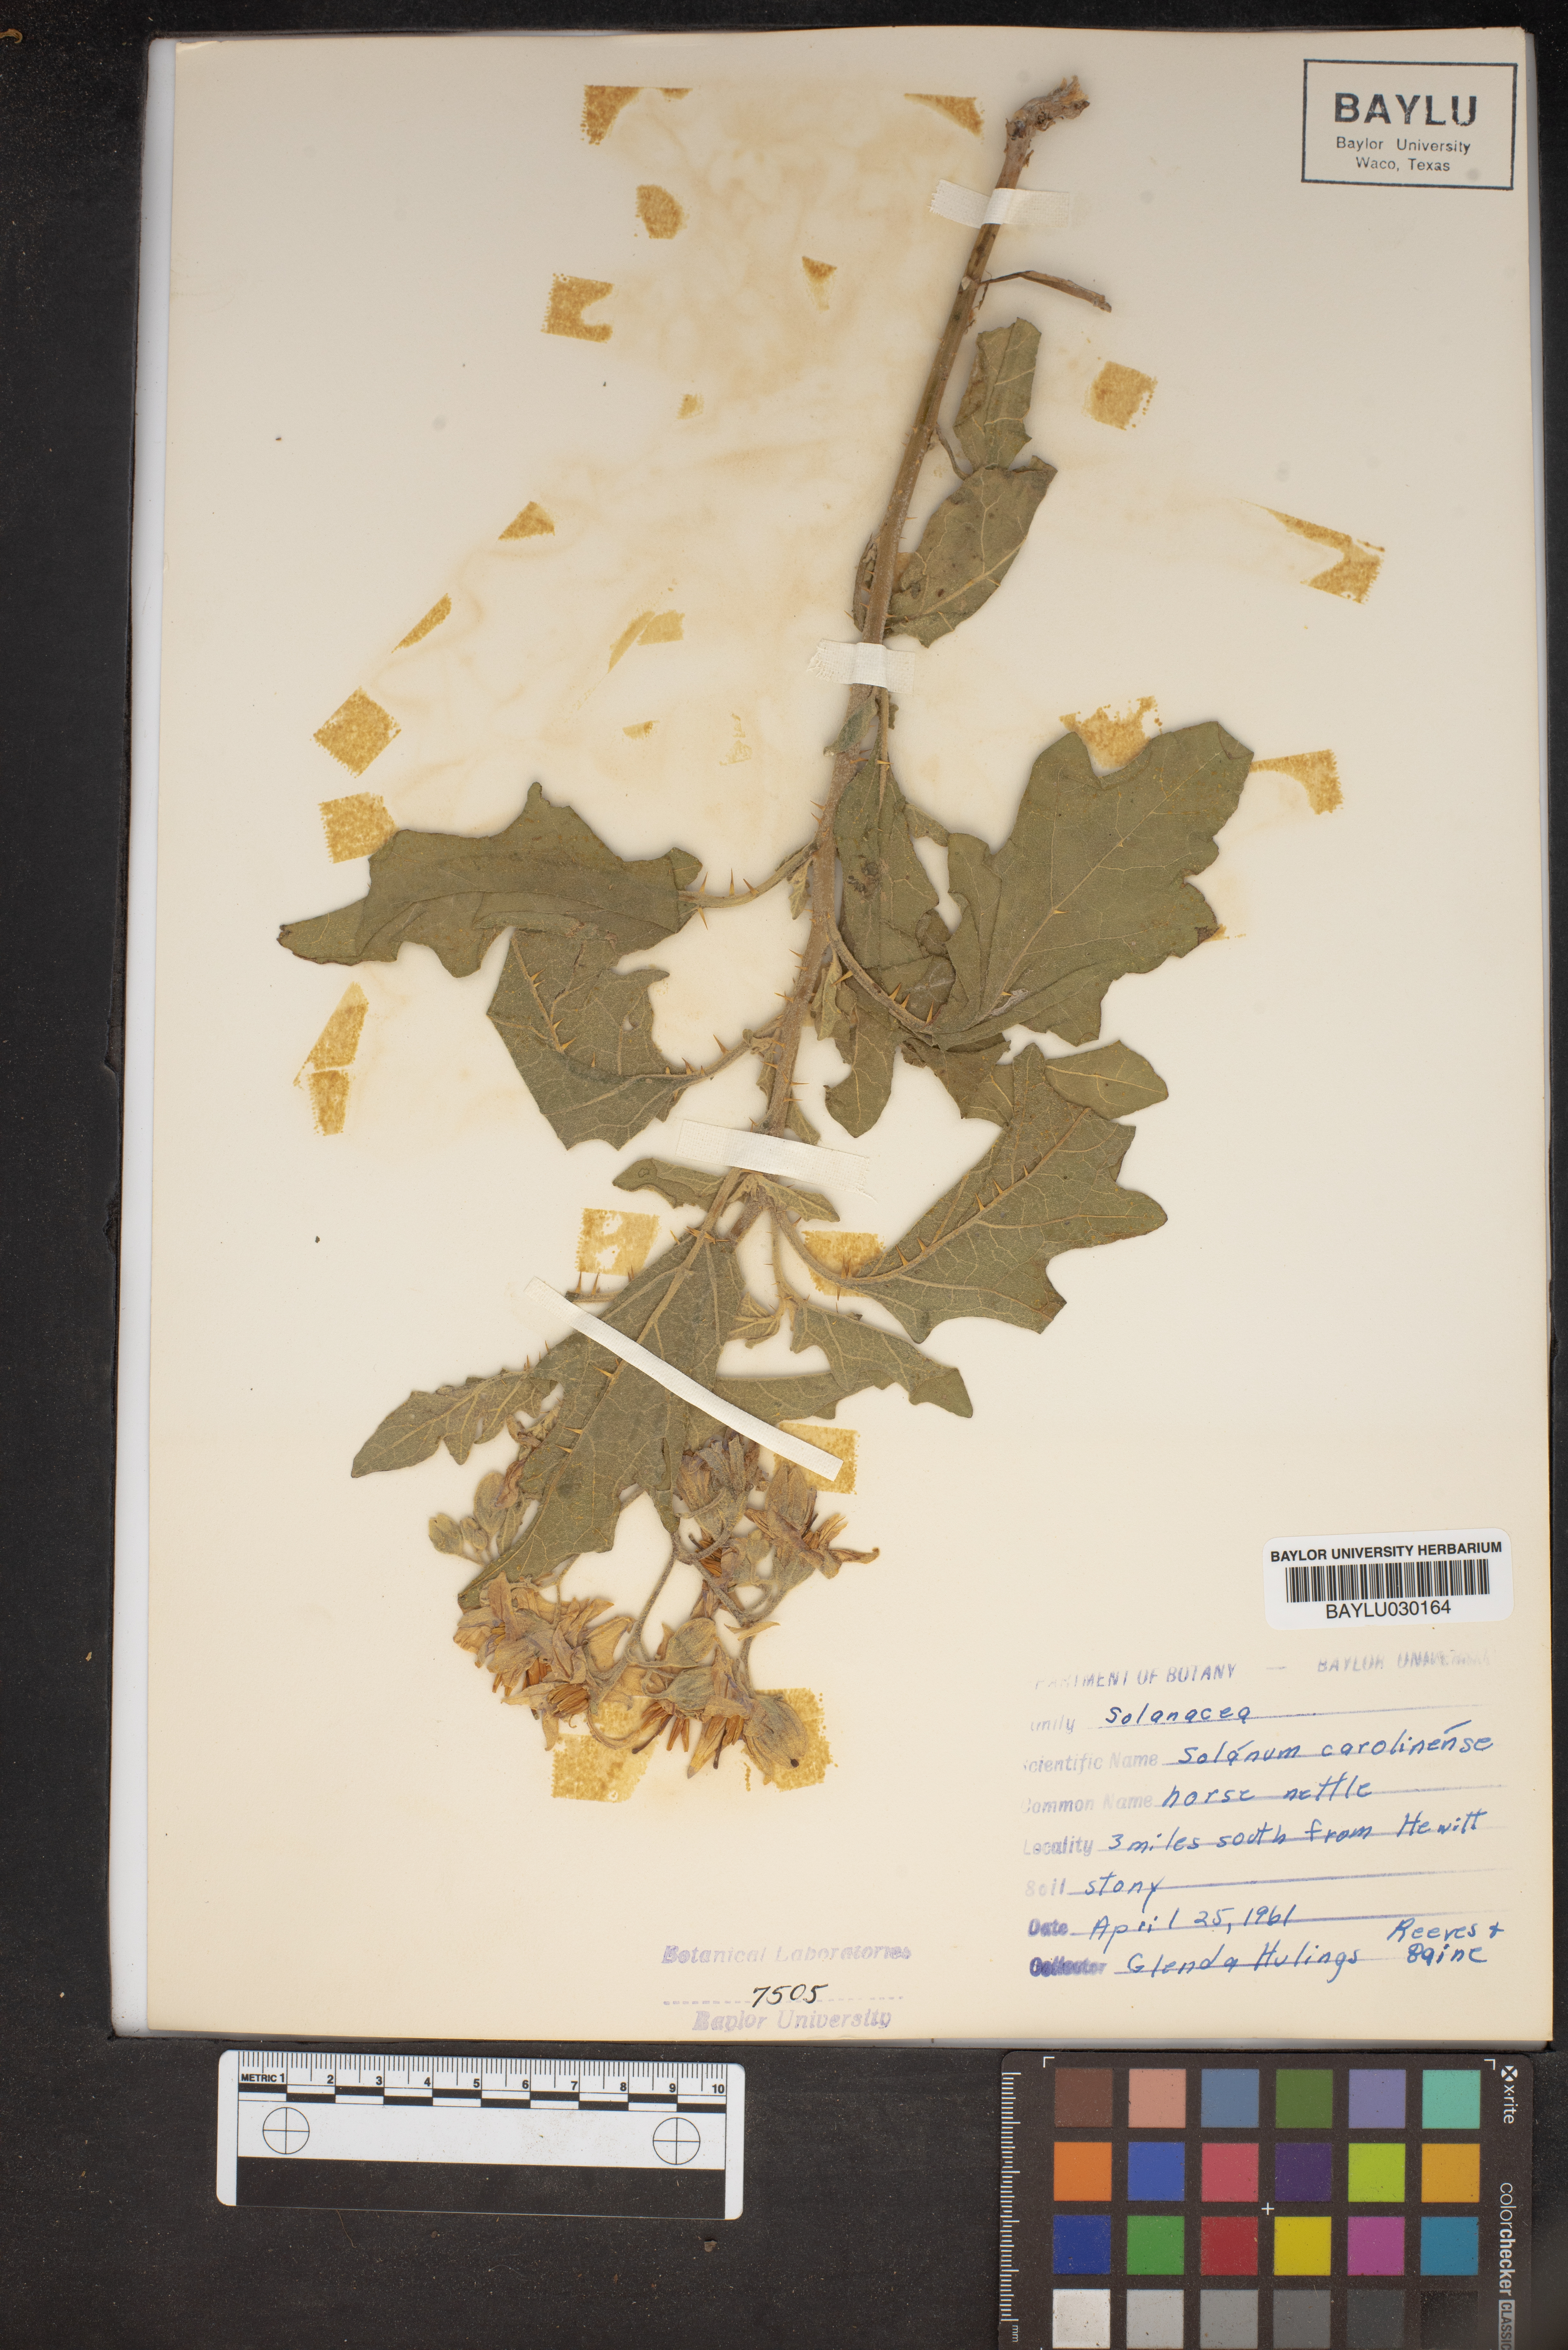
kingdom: Plantae
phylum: Tracheophyta
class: Magnoliopsida
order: Solanales
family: Solanaceae
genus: Solanum
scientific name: Solanum carolinense
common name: Horse-nettle
